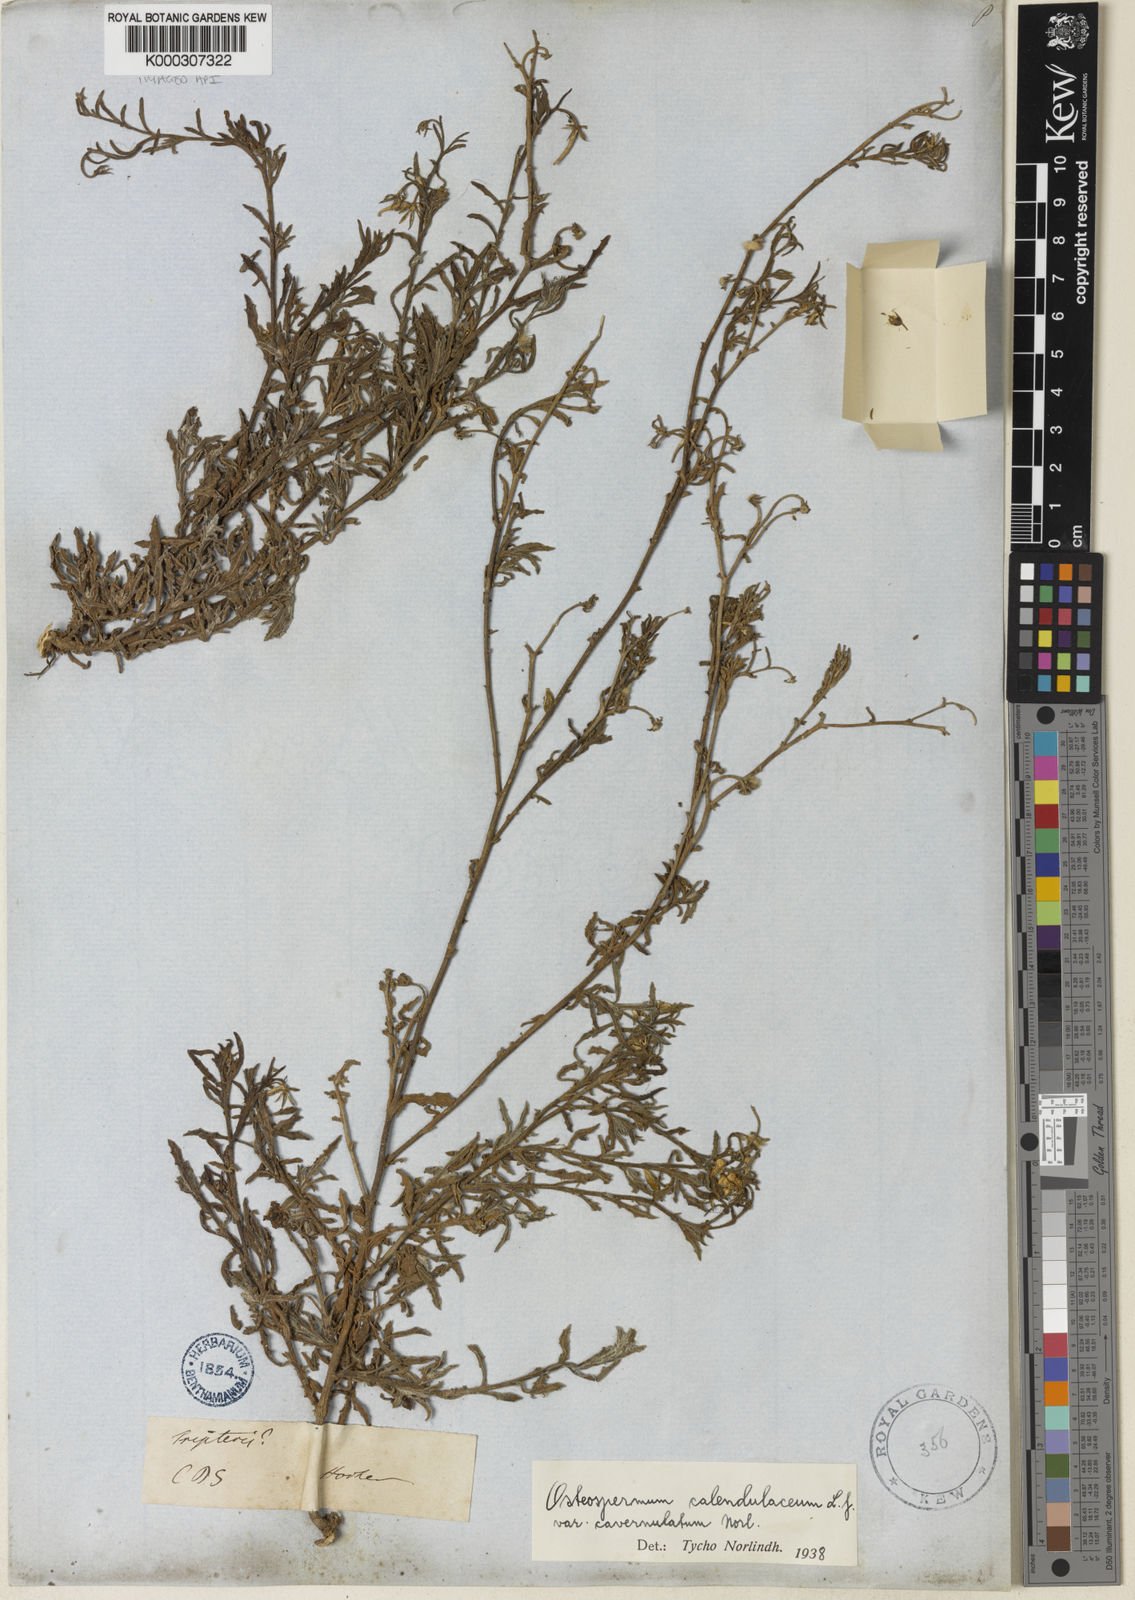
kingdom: Plantae
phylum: Tracheophyta
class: Magnoliopsida
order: Asterales
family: Asteraceae
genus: Osteospermum
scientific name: Osteospermum calendulaceum
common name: Stinking roger
